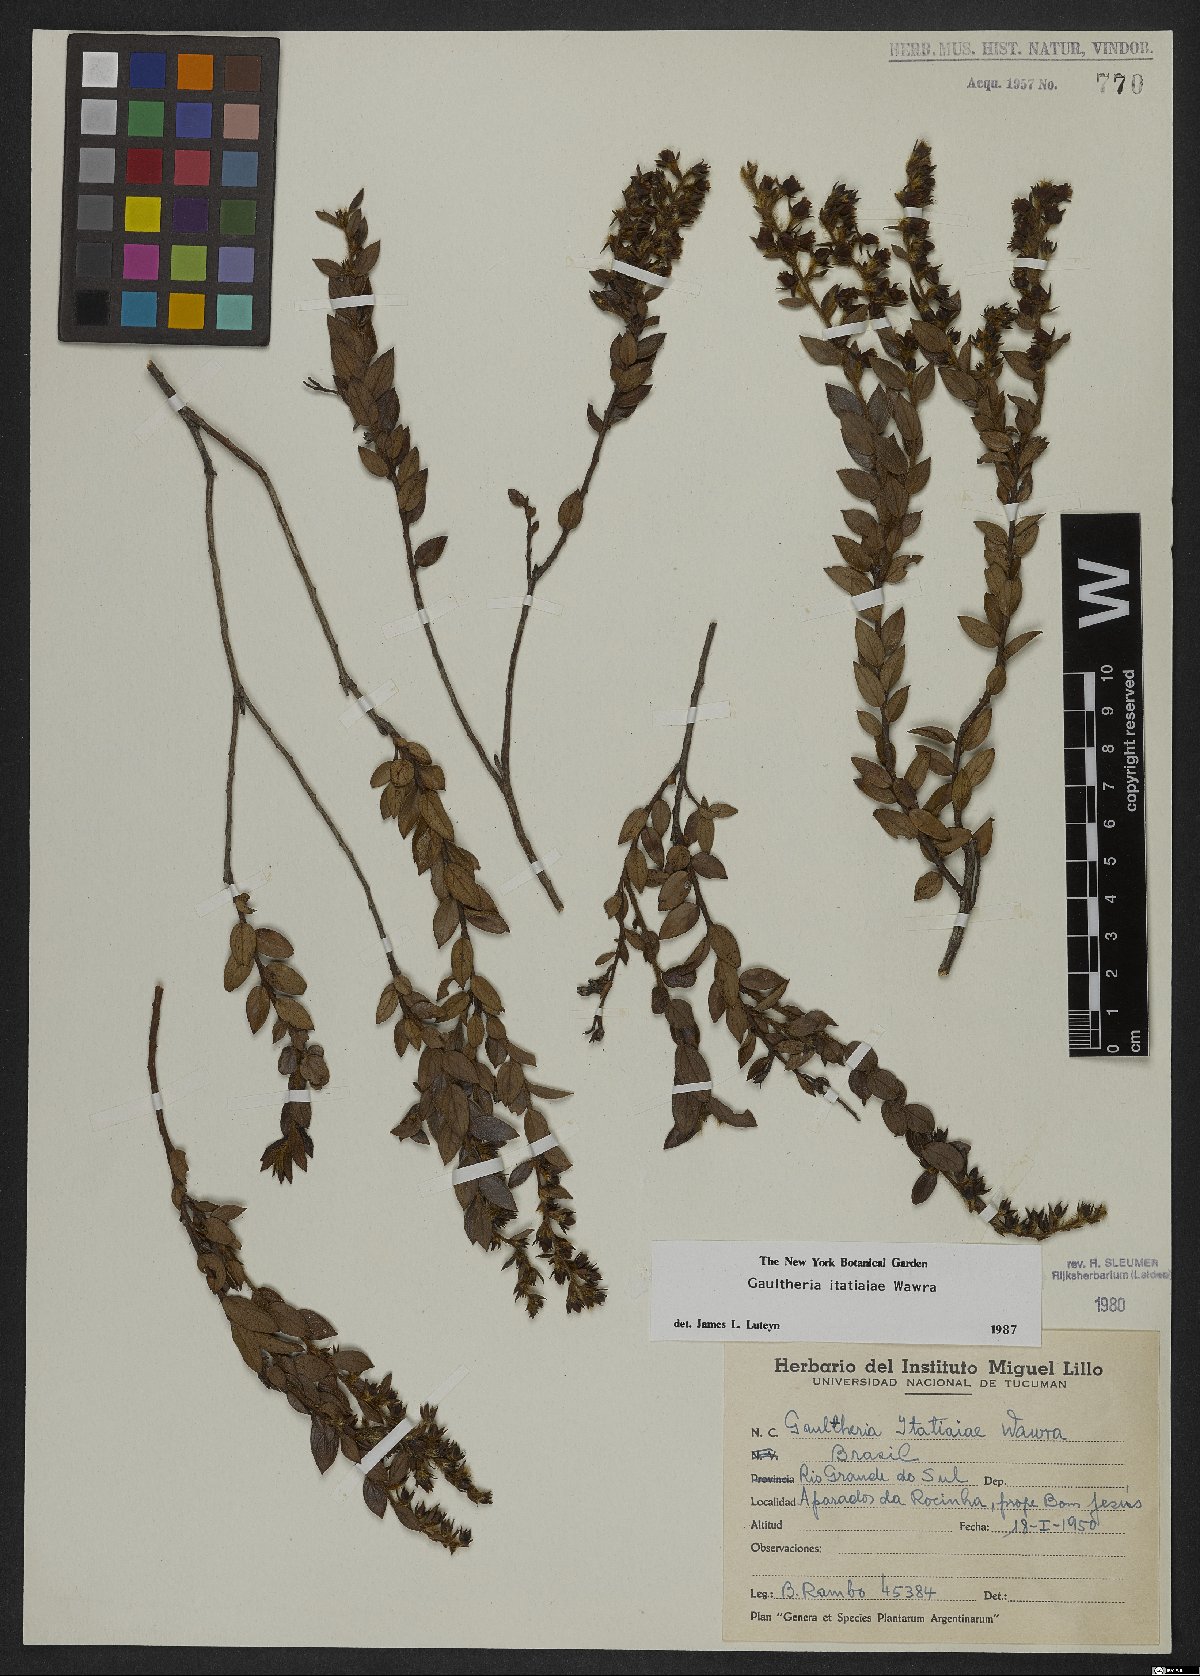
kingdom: Plantae
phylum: Tracheophyta
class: Magnoliopsida
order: Ericales
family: Ericaceae
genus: Gaultheria
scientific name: Gaultheria itatiaiae
